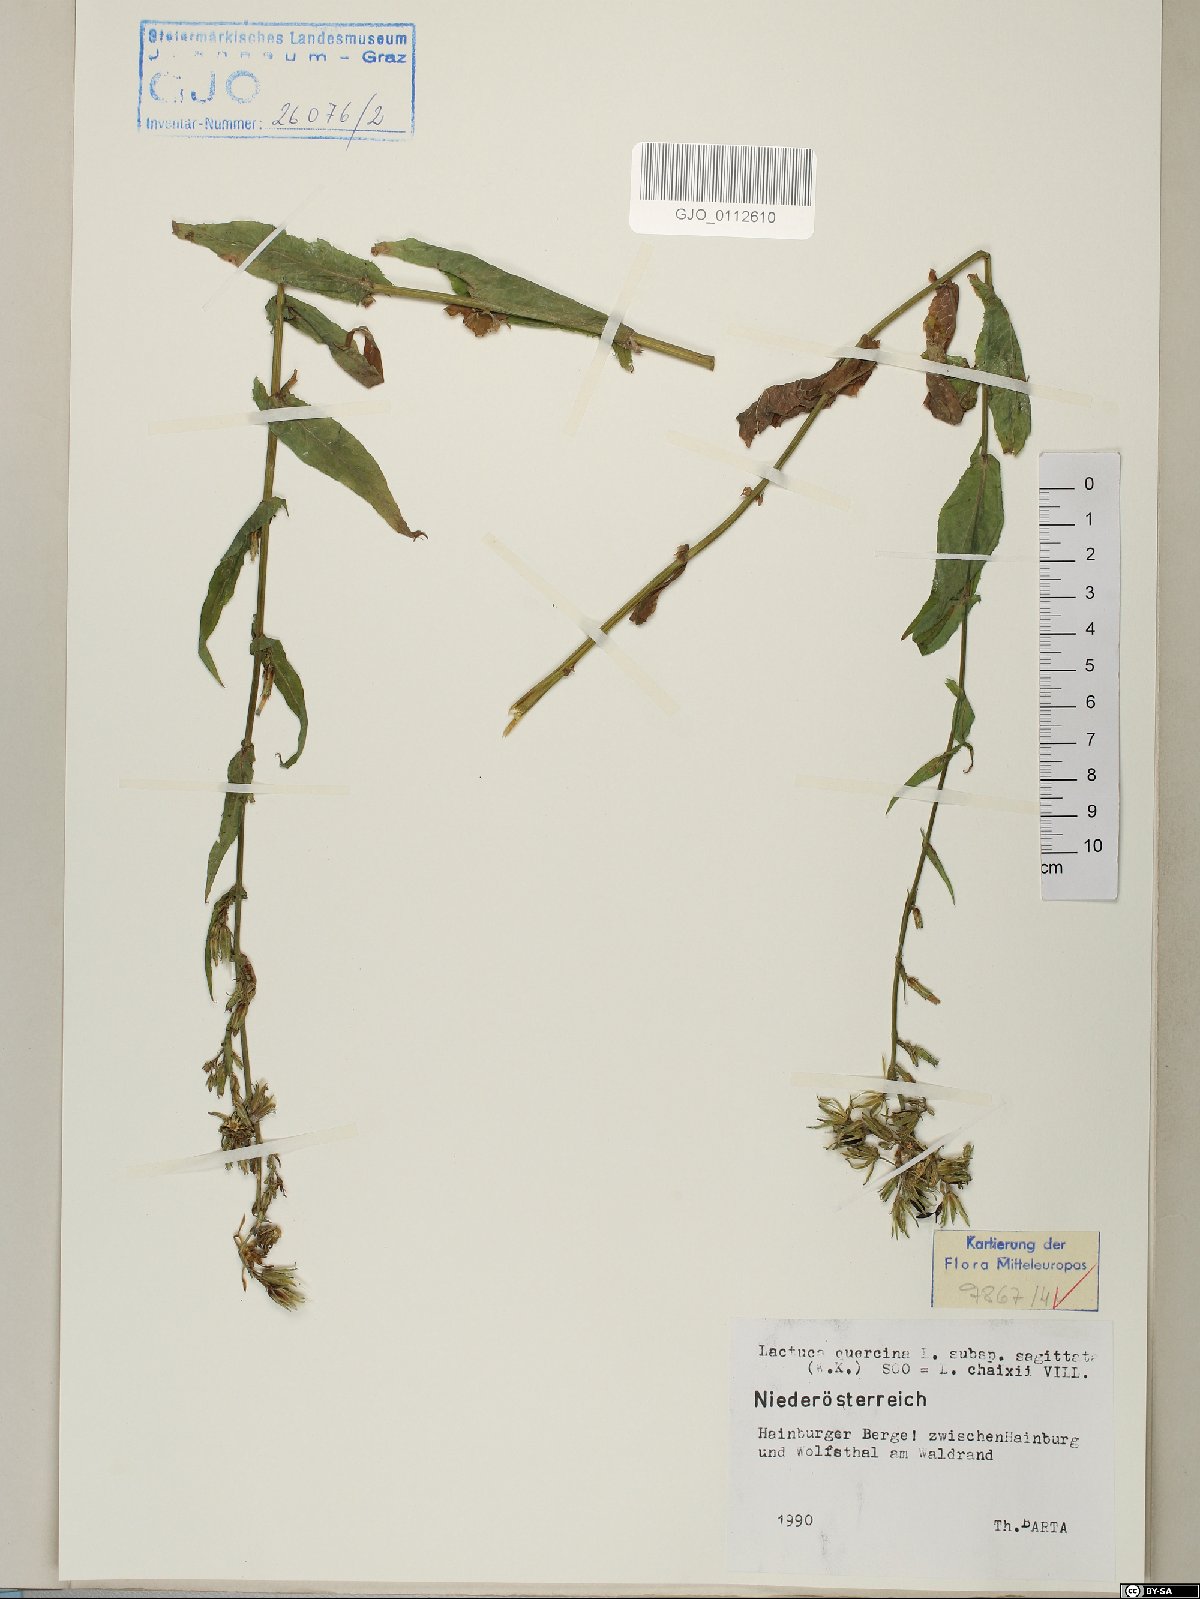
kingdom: Plantae
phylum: Tracheophyta
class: Magnoliopsida
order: Asterales
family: Asteraceae
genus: Lactuca
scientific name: Lactuca quercina
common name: Wild lettuce
